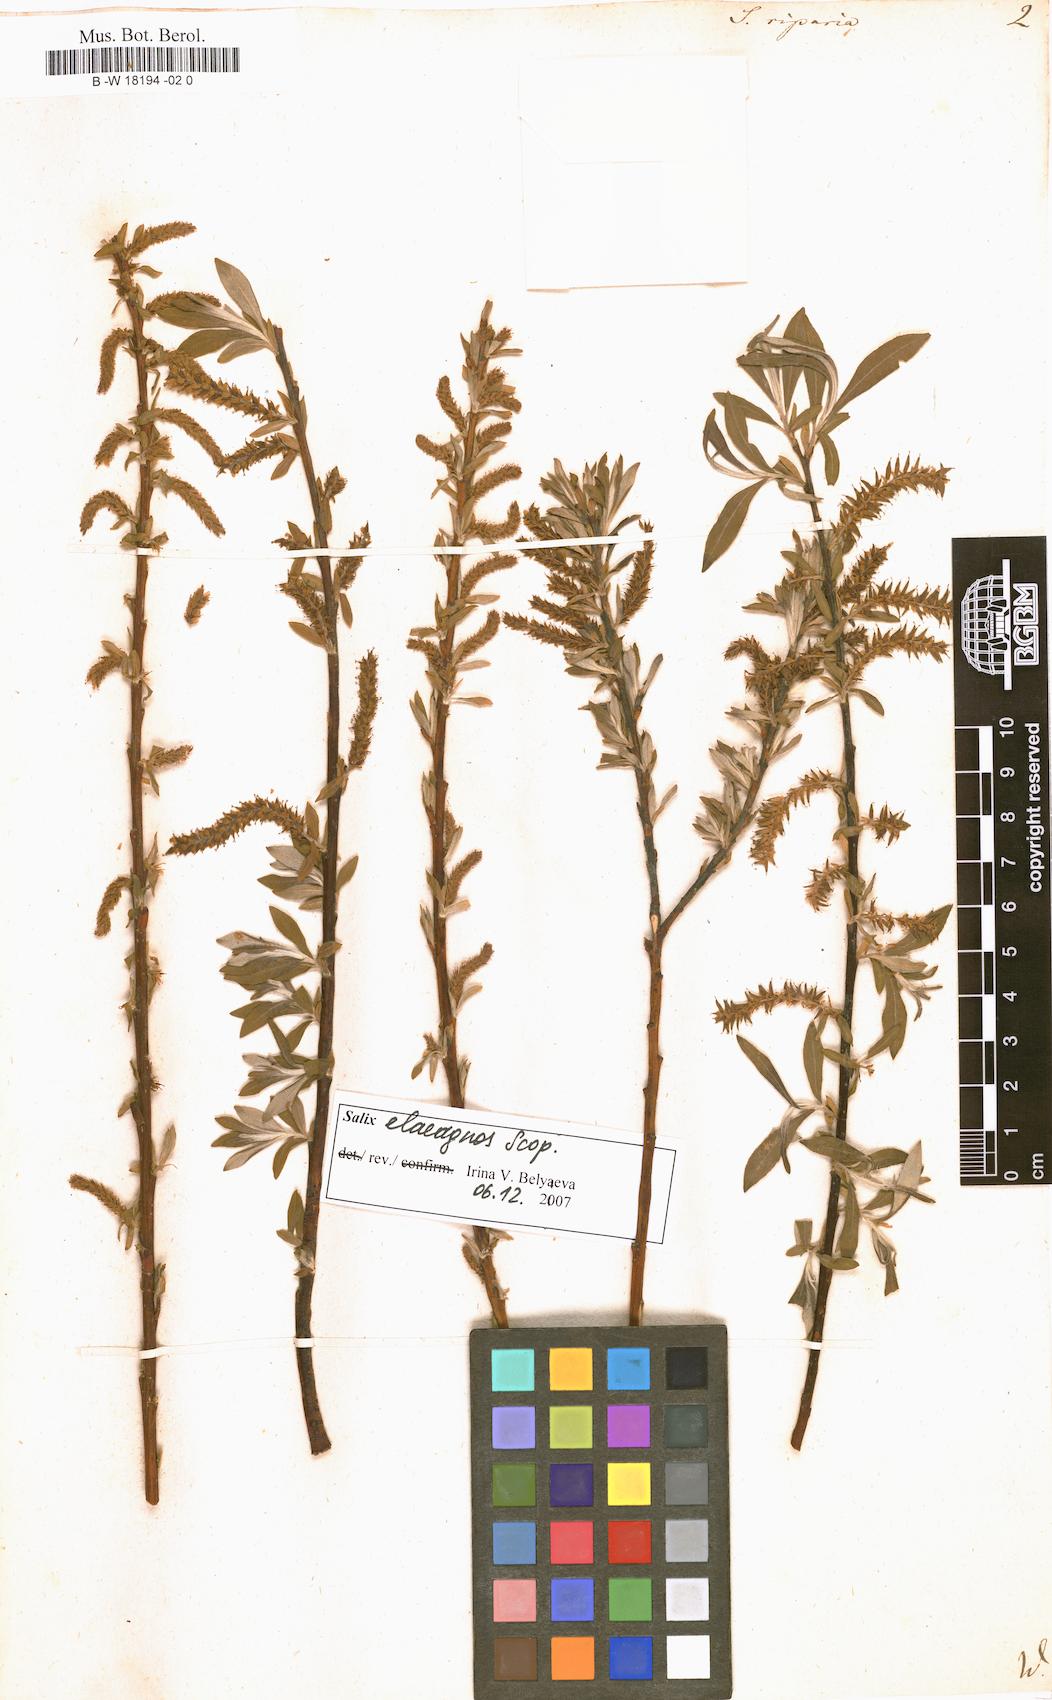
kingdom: Plantae
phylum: Tracheophyta
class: Magnoliopsida
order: Malpighiales
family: Salicaceae
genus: Salix
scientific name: Salix eleagnos
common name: Elaeagnus willow
